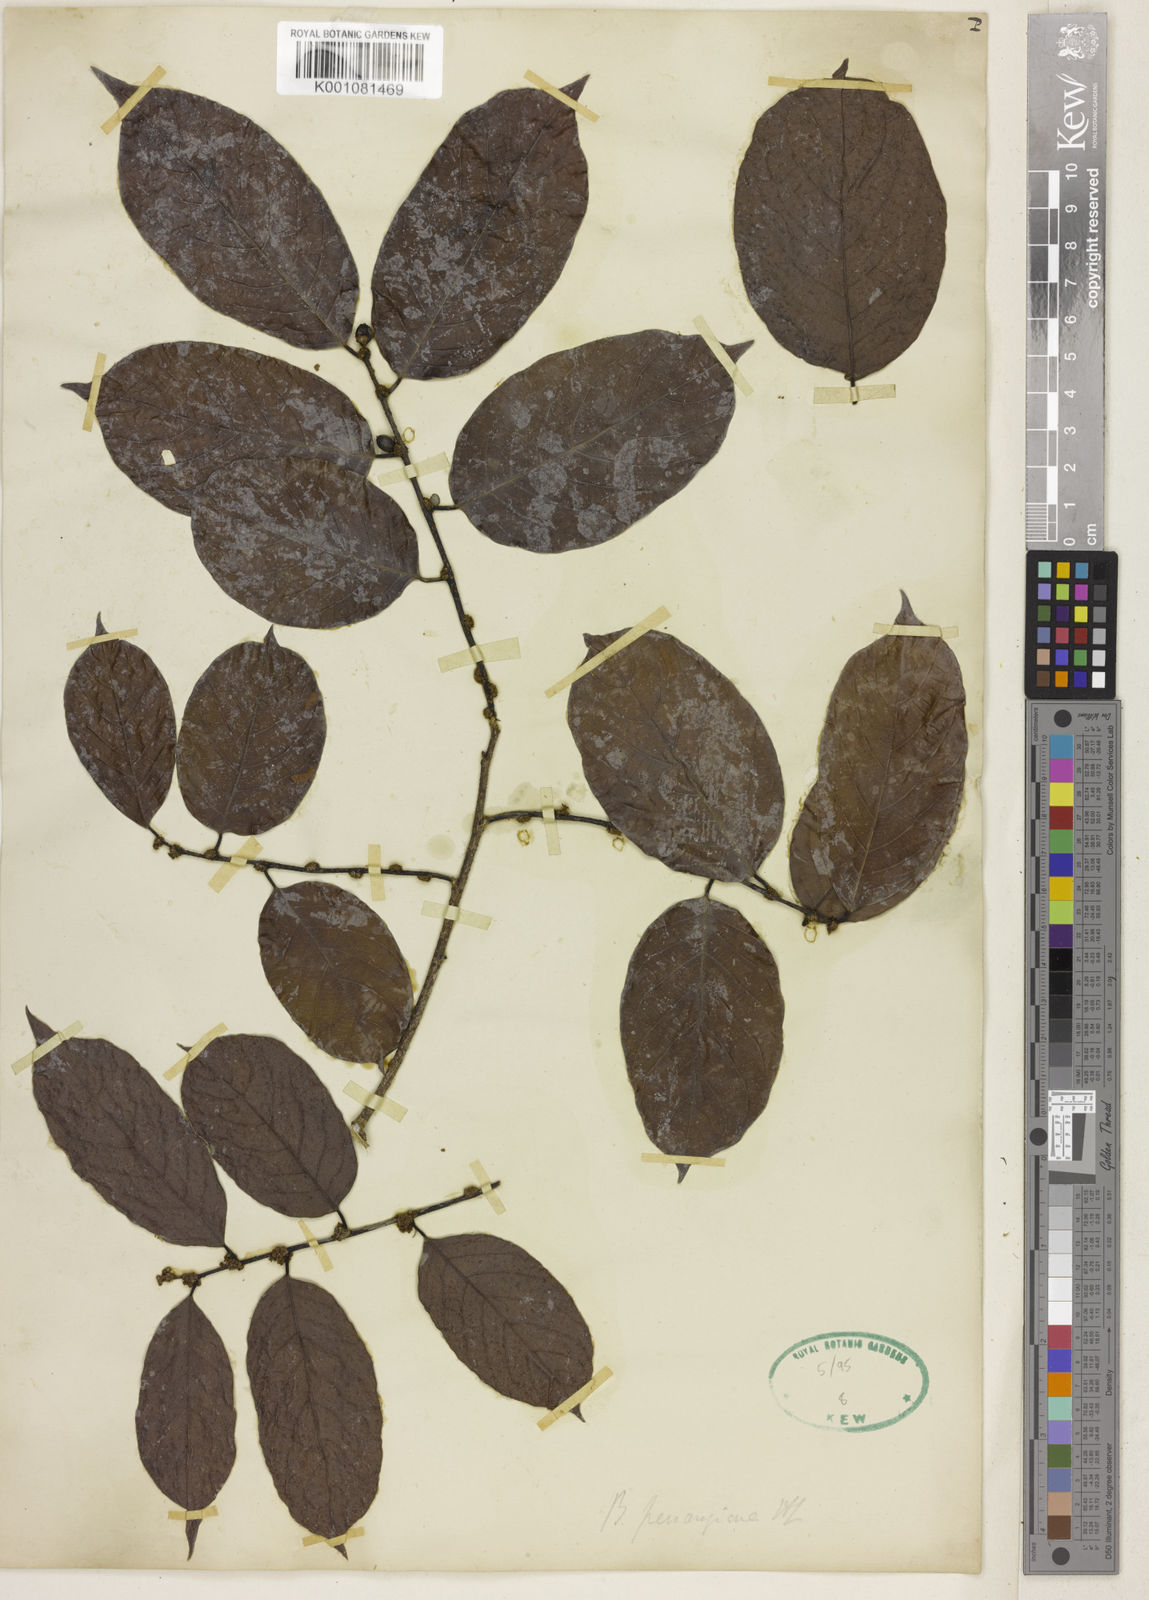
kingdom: Plantae
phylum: Tracheophyta
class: Magnoliopsida
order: Malpighiales
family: Phyllanthaceae
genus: Bridelia
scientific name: Bridelia insulana
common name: Grey-birch
